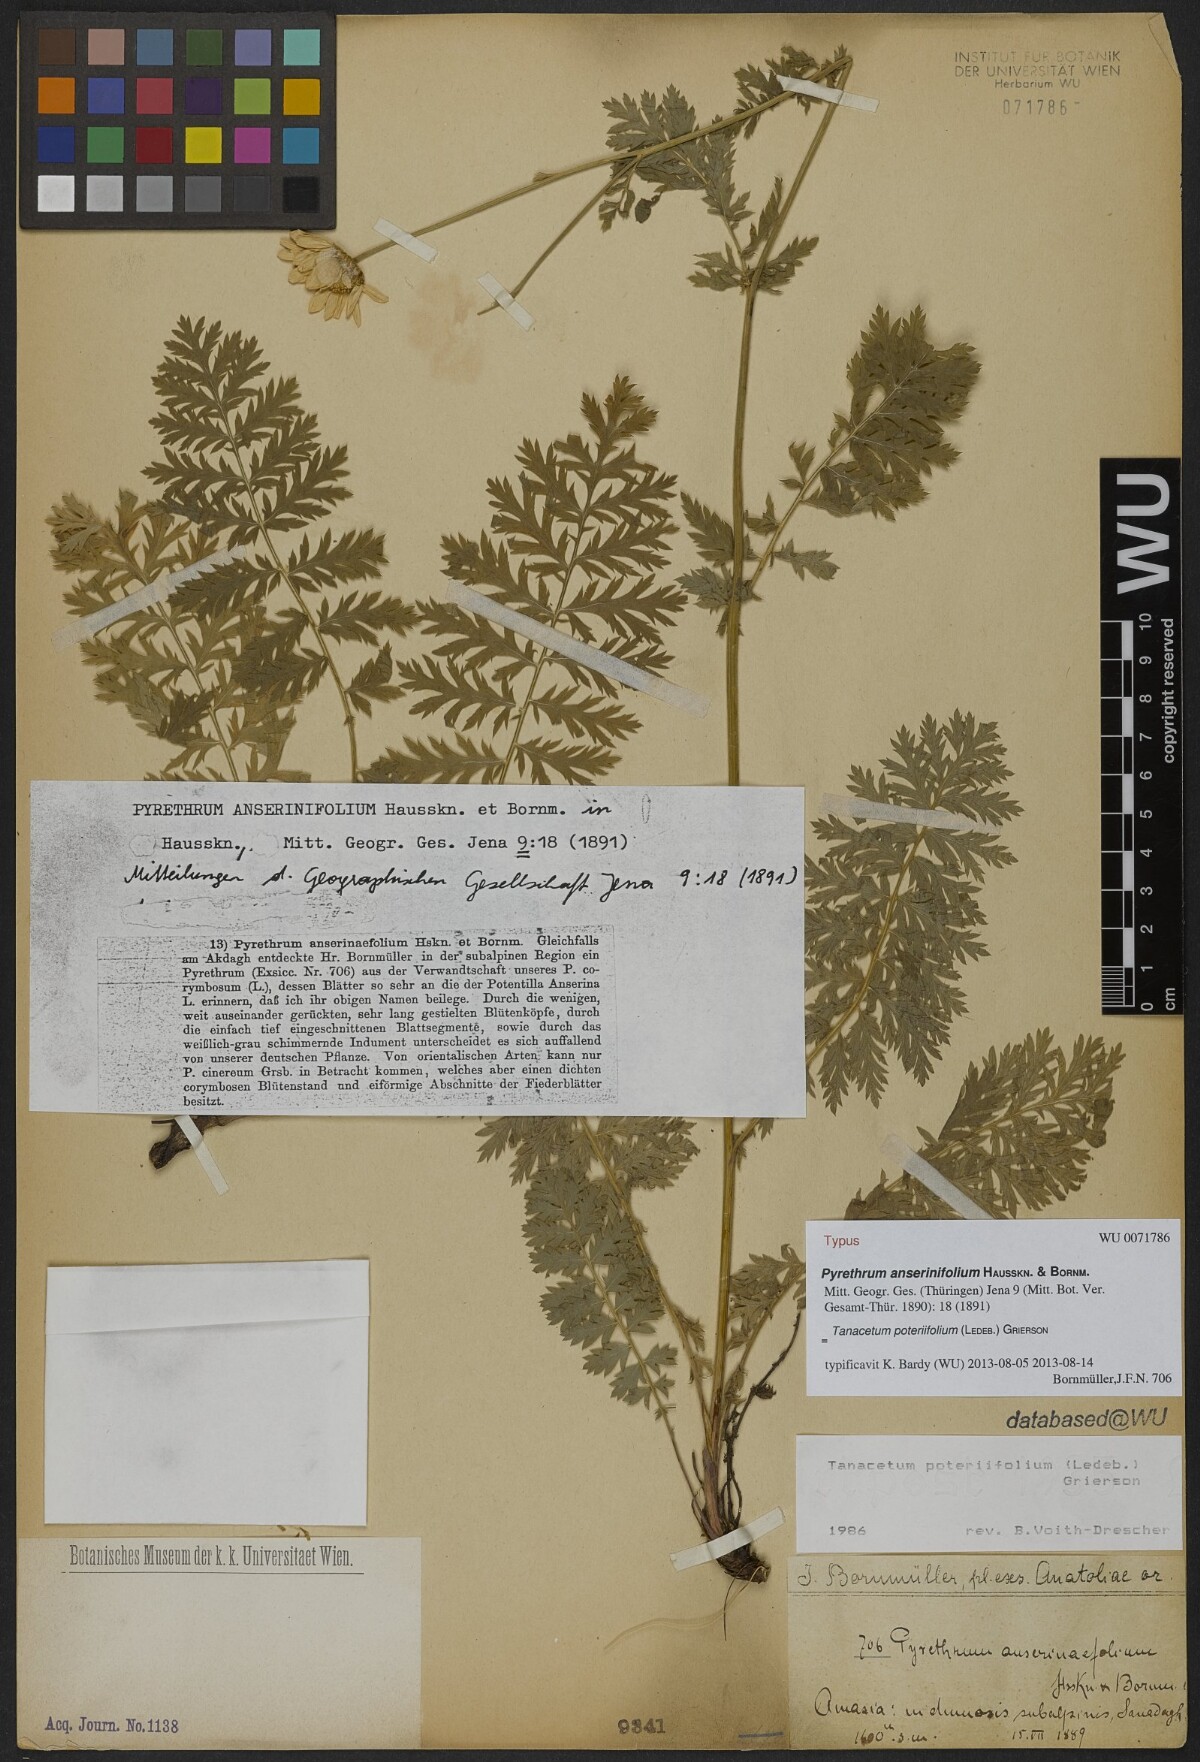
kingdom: Plantae
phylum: Tracheophyta
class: Magnoliopsida
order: Asterales
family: Asteraceae
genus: Tanacetum
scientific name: Tanacetum poteriifolium
